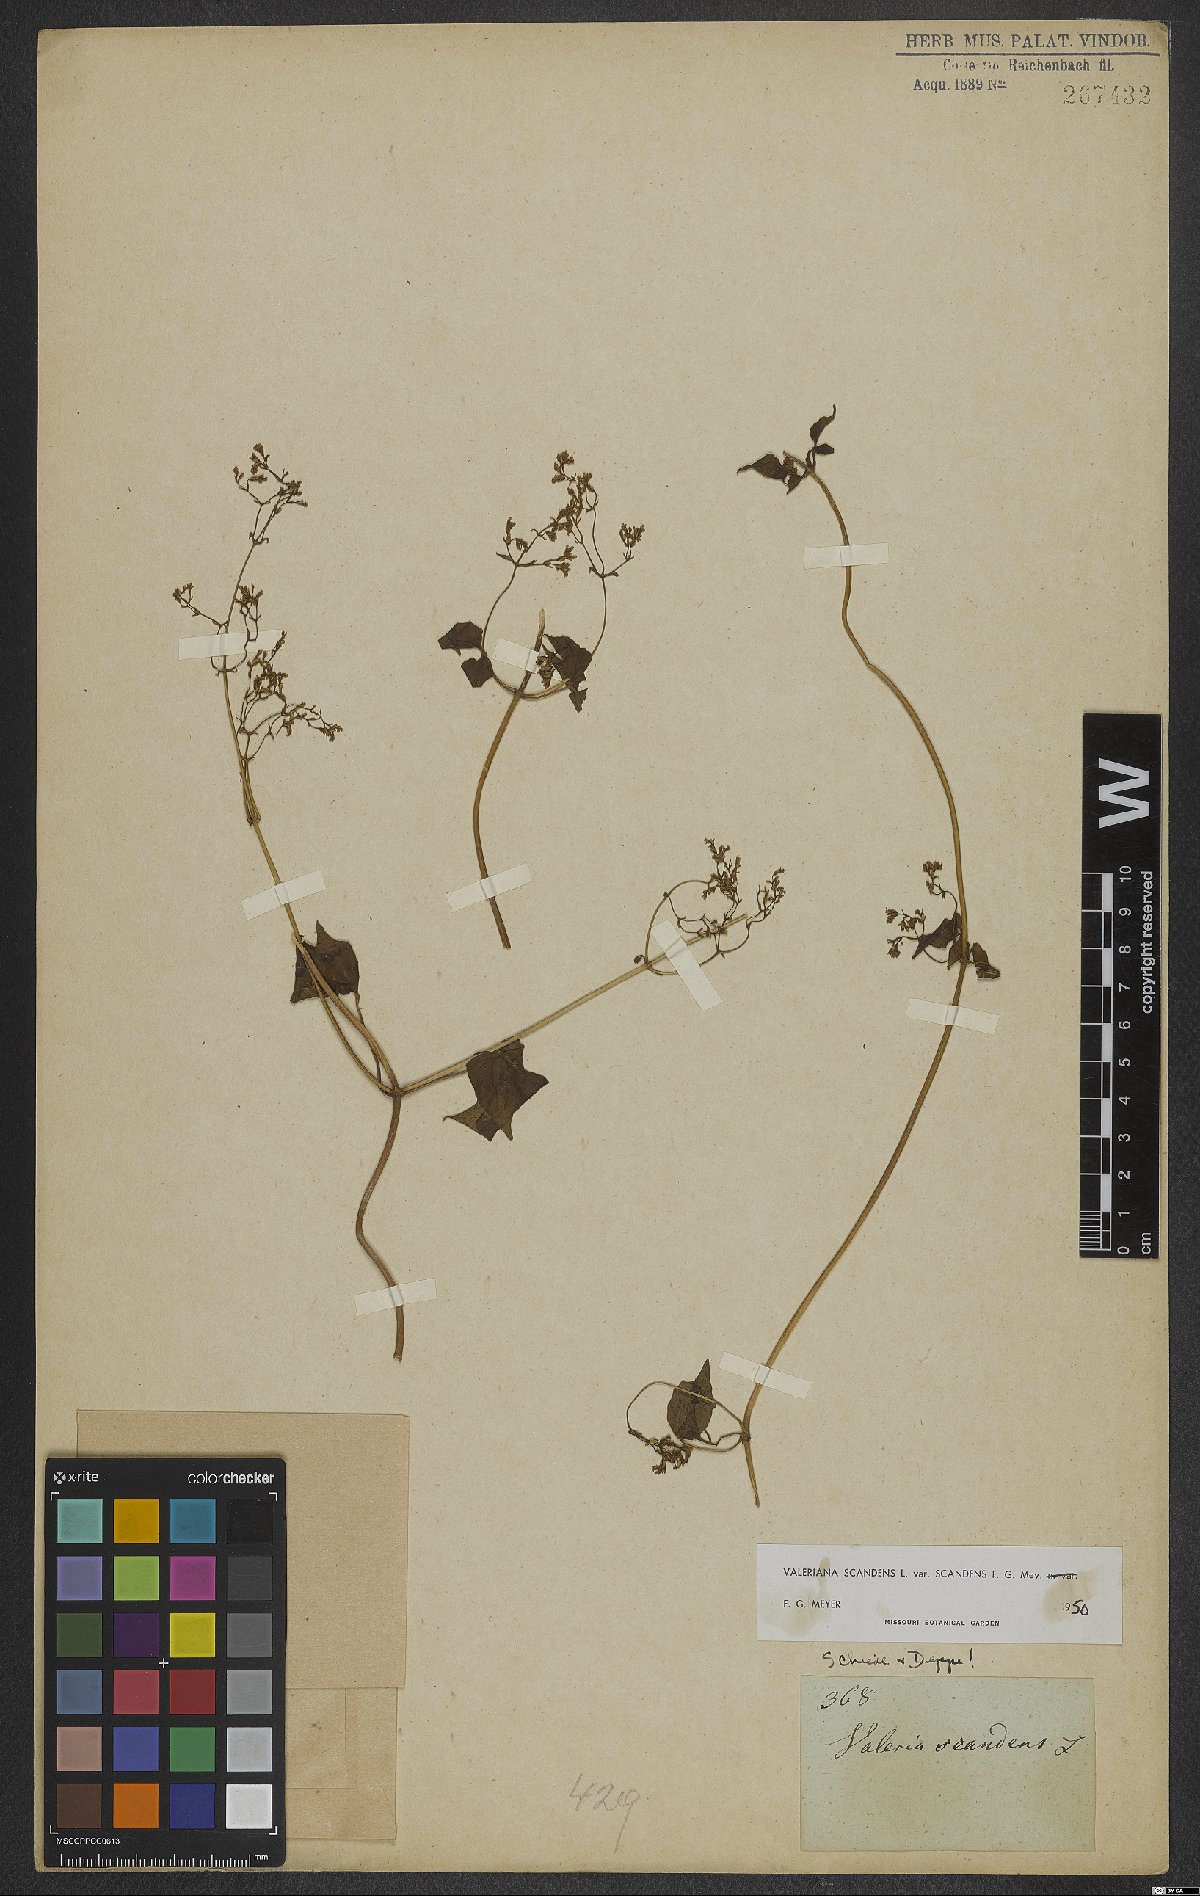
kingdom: Plantae
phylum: Tracheophyta
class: Magnoliopsida
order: Dipsacales
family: Caprifoliaceae
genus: Valeriana
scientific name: Valeriana scandens
